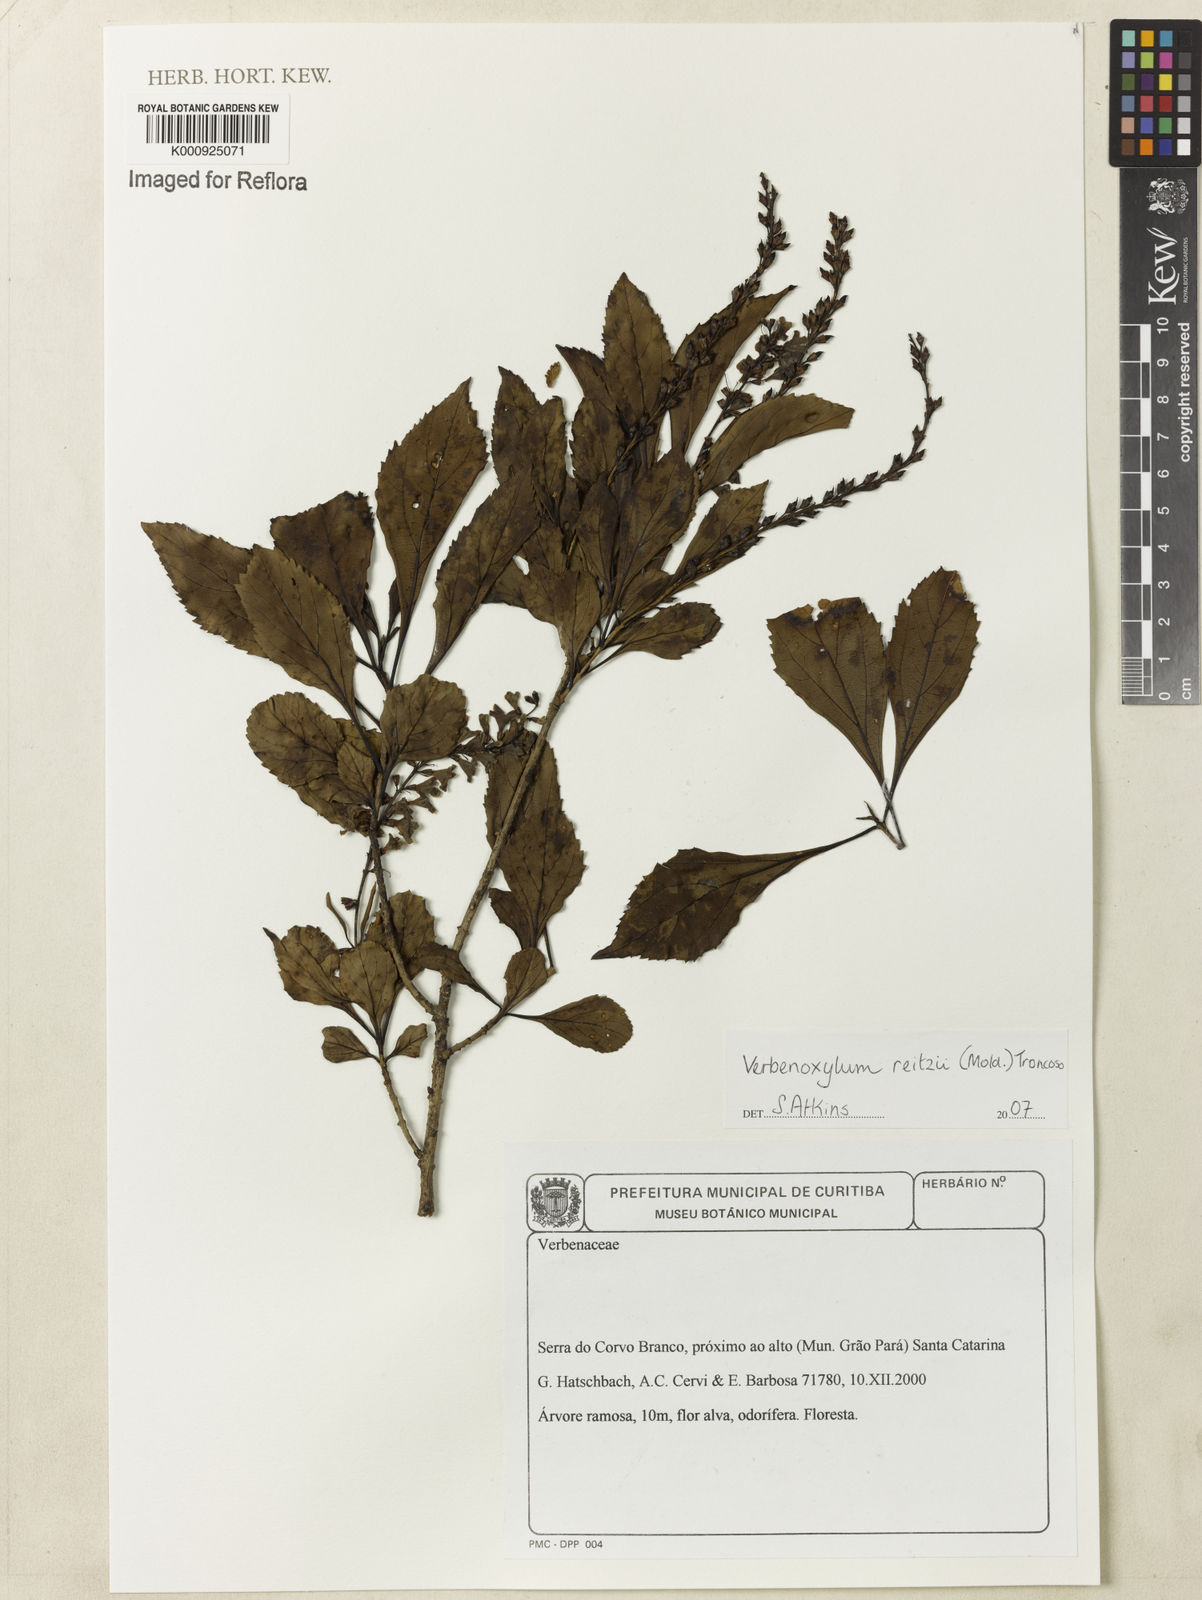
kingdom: Plantae
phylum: Tracheophyta
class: Magnoliopsida
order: Lamiales
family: Verbenaceae
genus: Recordia
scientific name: Recordia reitzii
